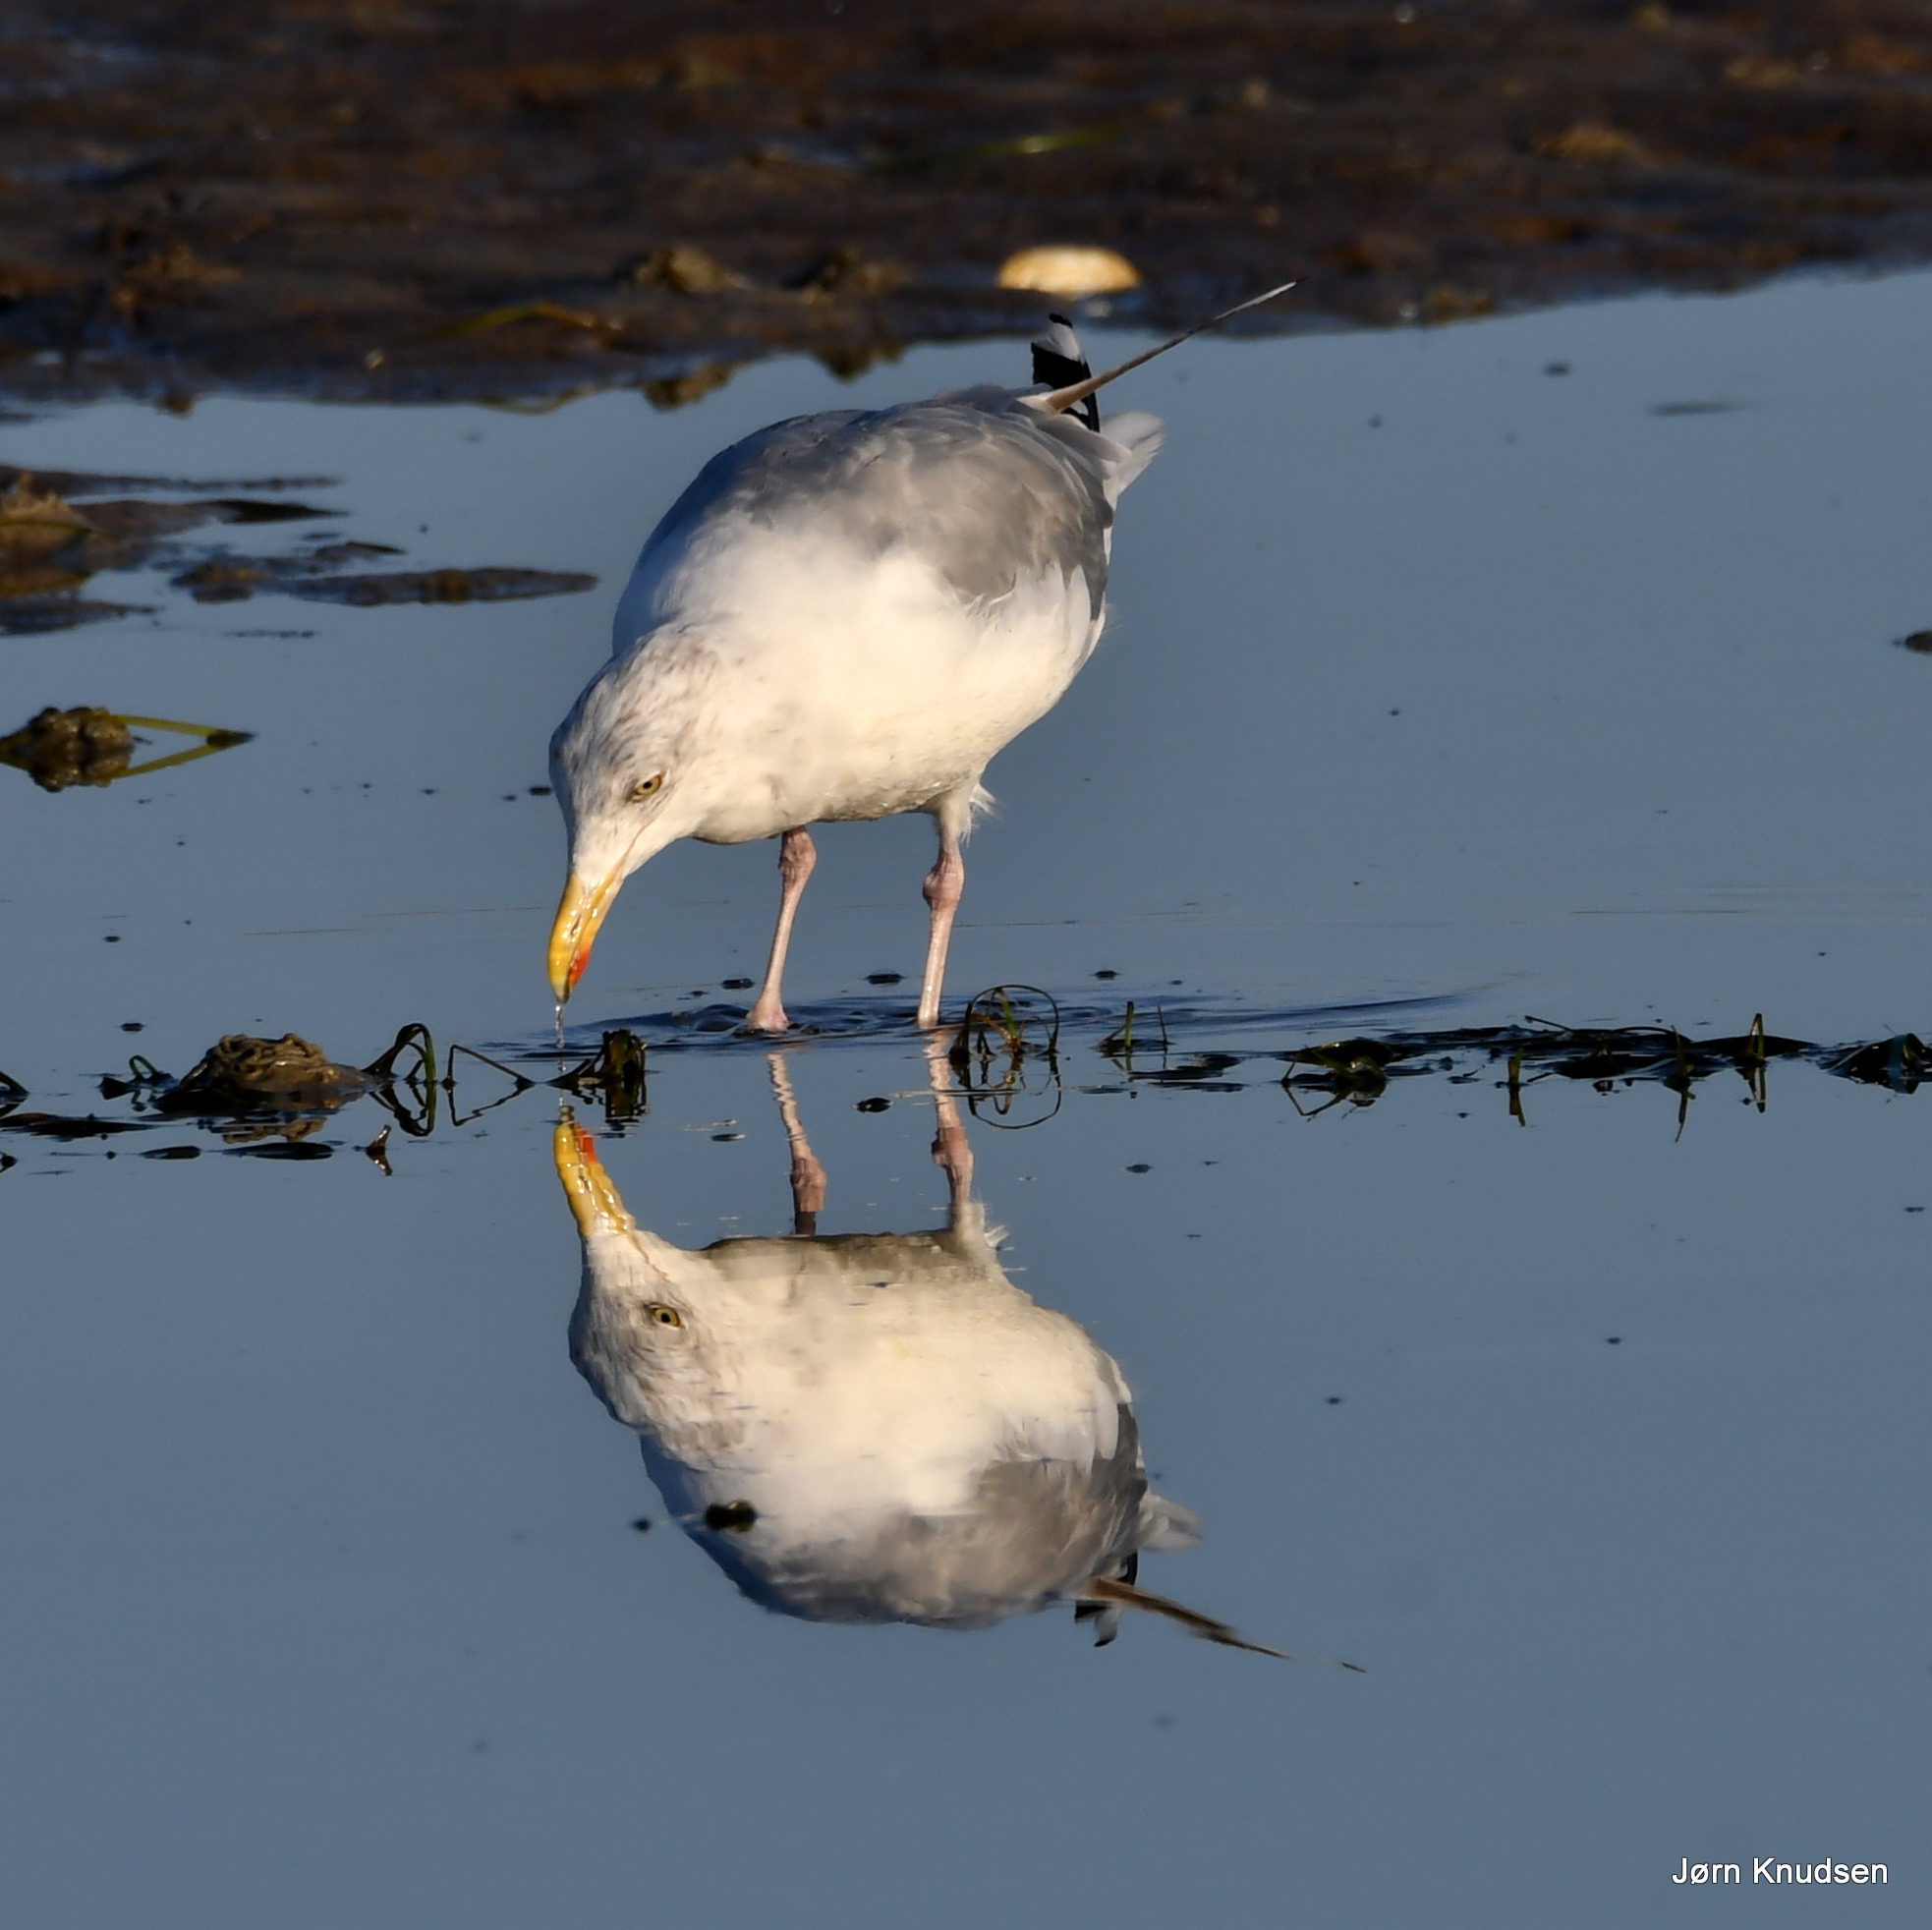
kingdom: Animalia
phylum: Chordata
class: Aves
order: Charadriiformes
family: Laridae
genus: Larus
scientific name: Larus argentatus
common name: Sølvmåge
